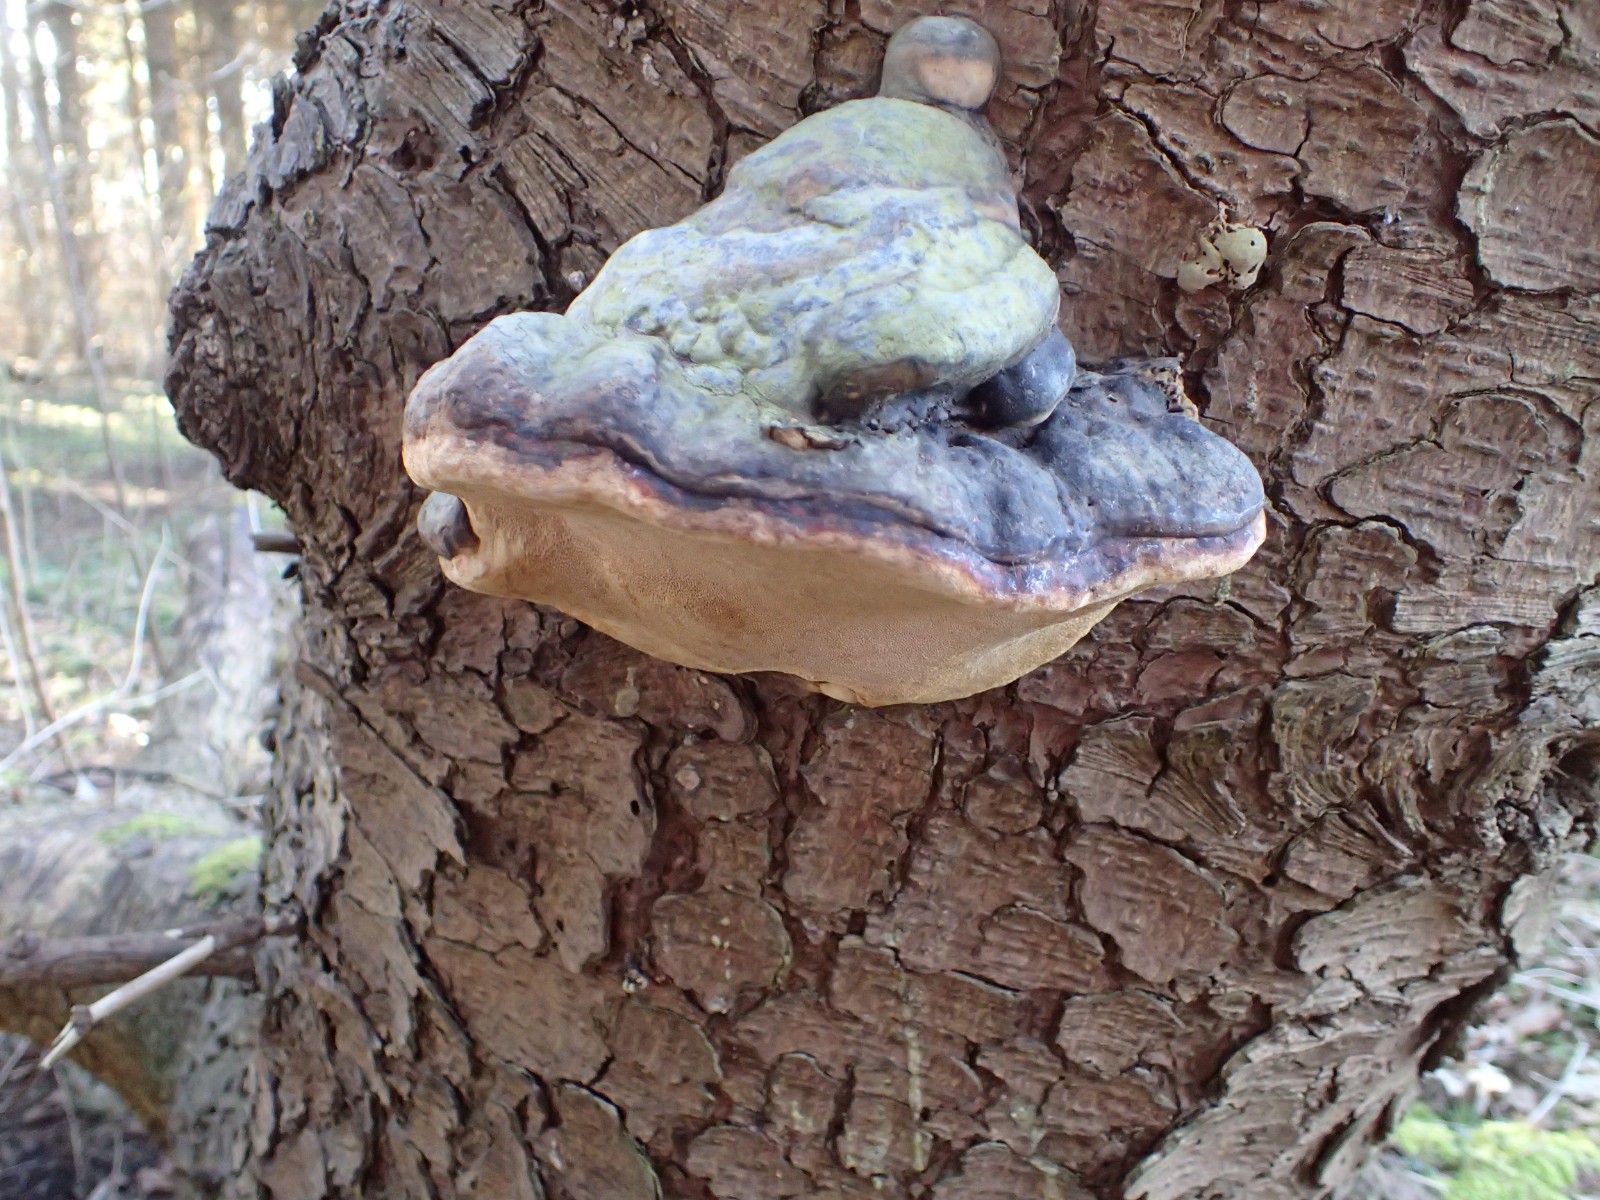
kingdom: Fungi
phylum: Basidiomycota
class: Agaricomycetes
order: Polyporales
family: Fomitopsidaceae
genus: Fomitopsis
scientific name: Fomitopsis pinicola
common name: randbæltet hovporesvamp
